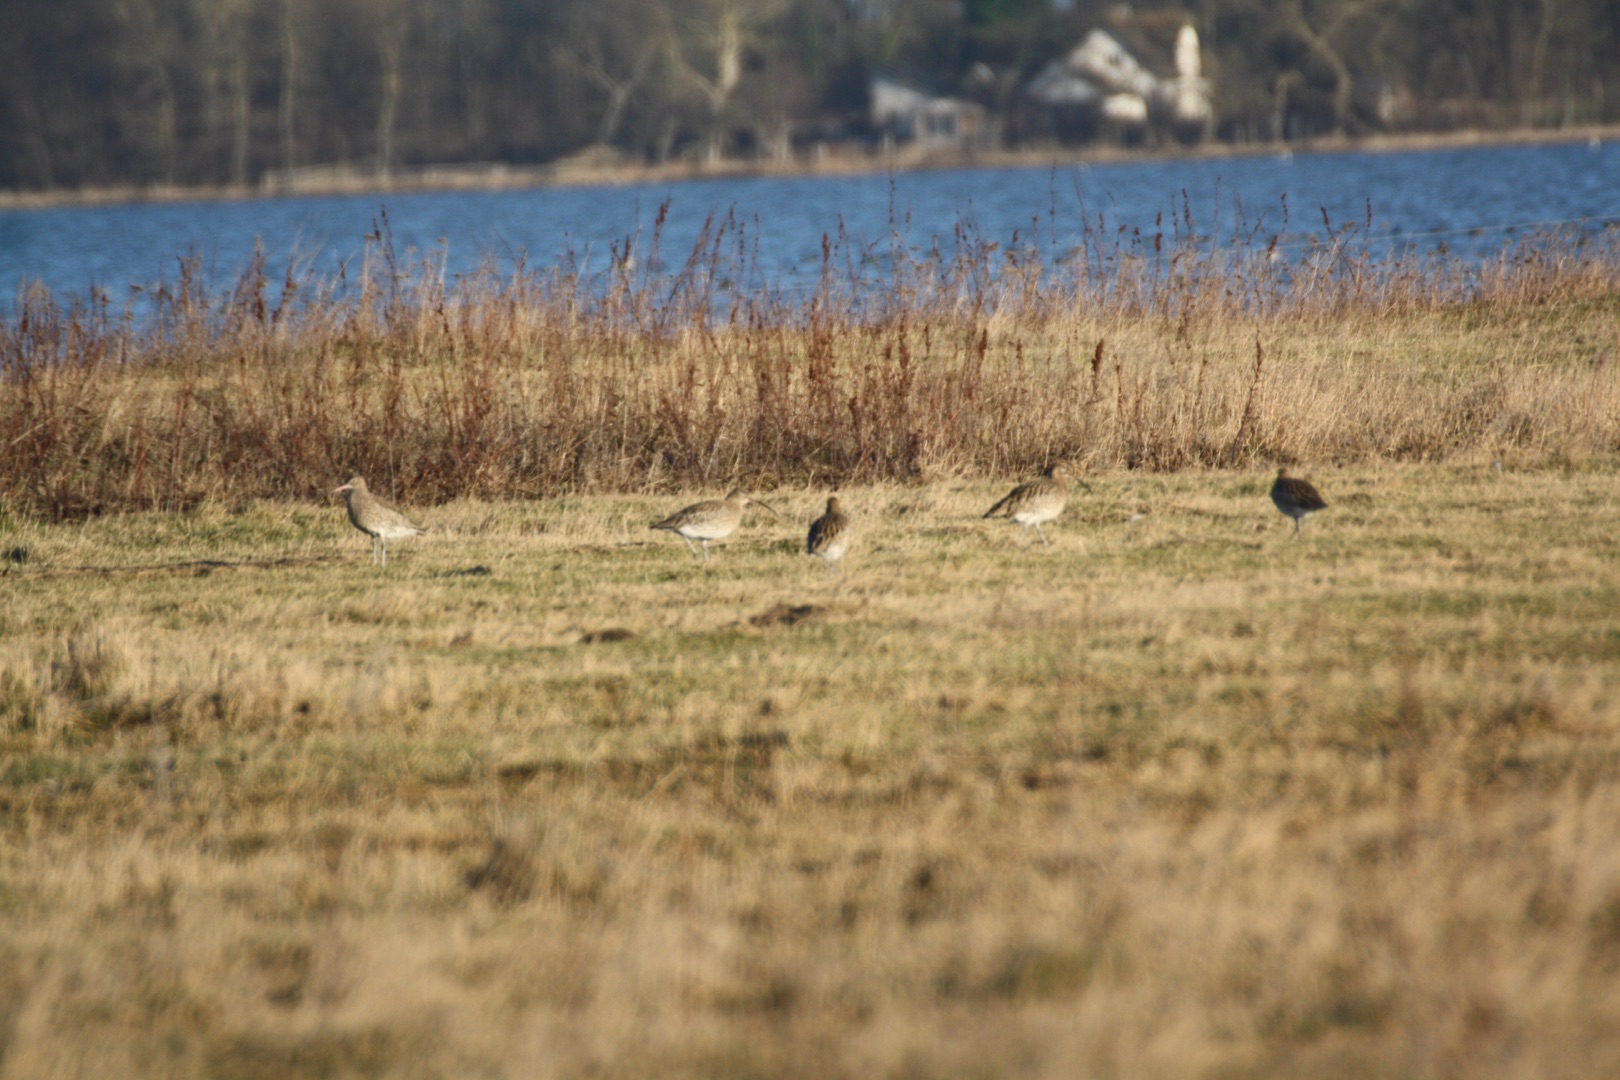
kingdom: Animalia
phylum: Chordata
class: Aves
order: Charadriiformes
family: Scolopacidae
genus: Numenius
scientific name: Numenius arquata
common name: Storspove
